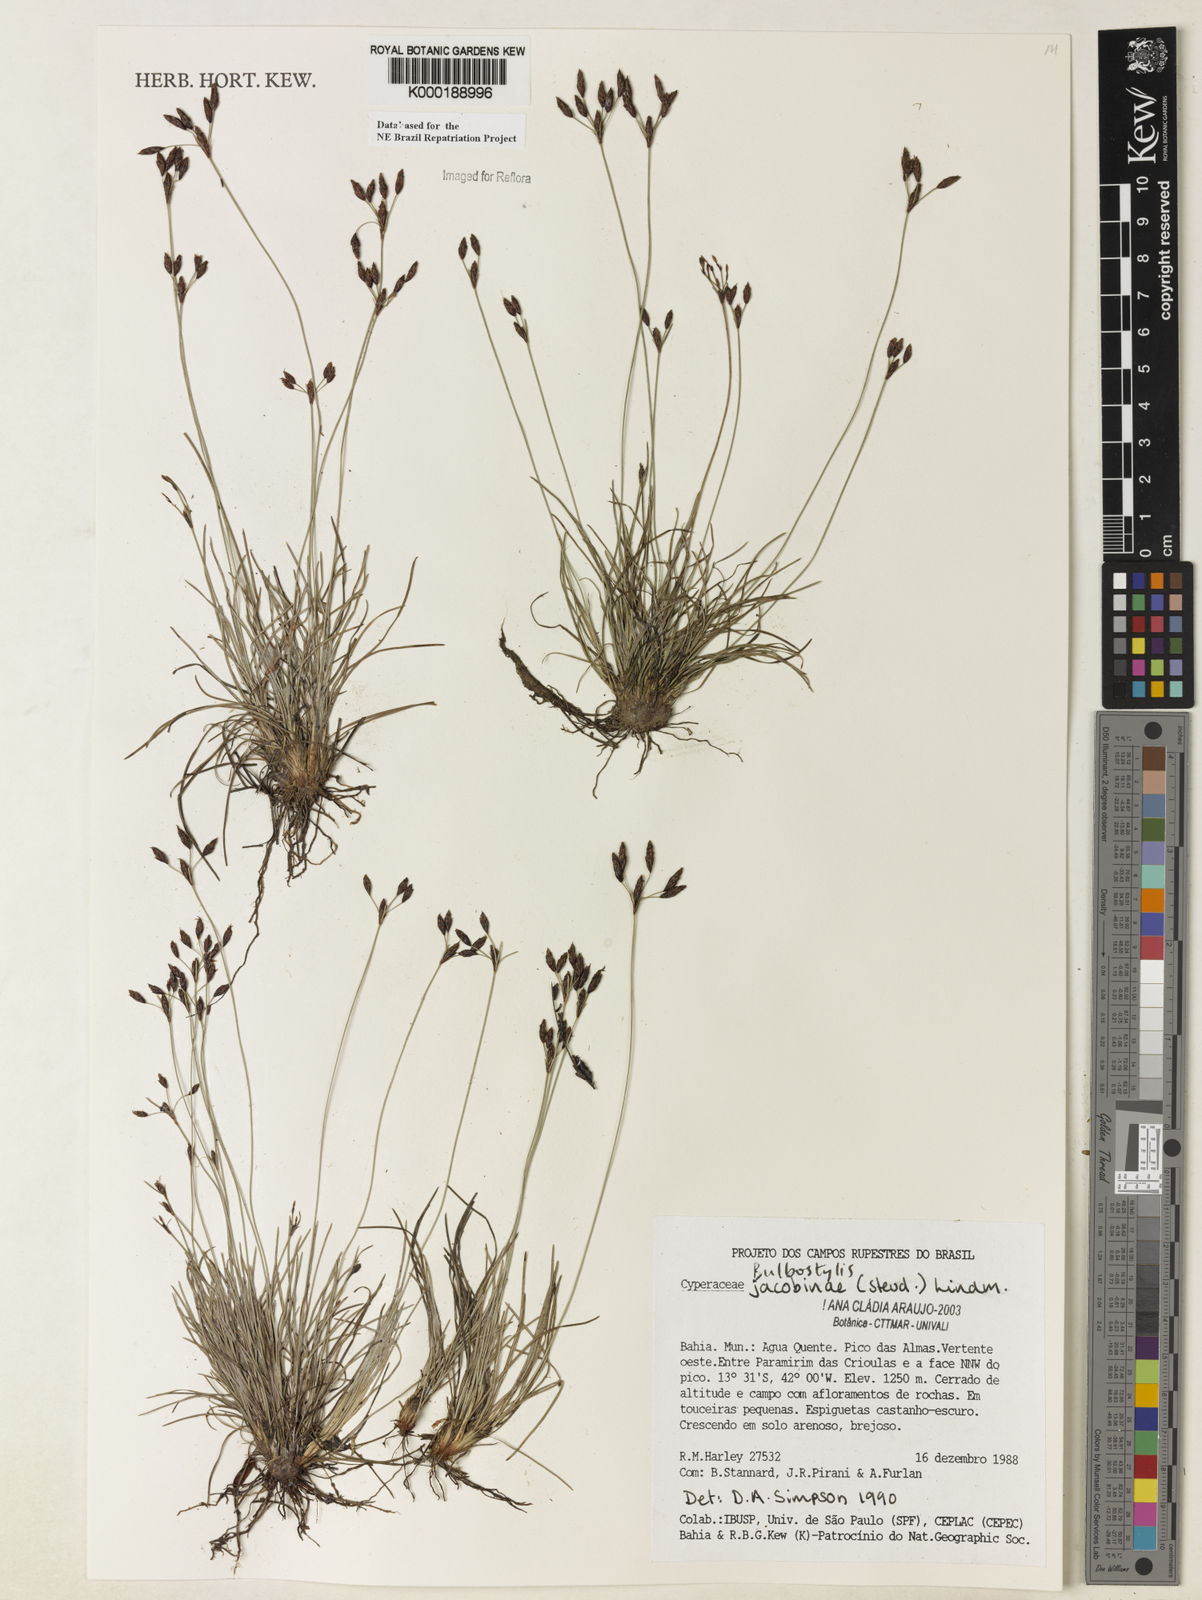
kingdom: Plantae
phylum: Tracheophyta
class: Liliopsida
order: Poales
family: Cyperaceae
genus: Bulbostylis
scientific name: Bulbostylis jacobinae
